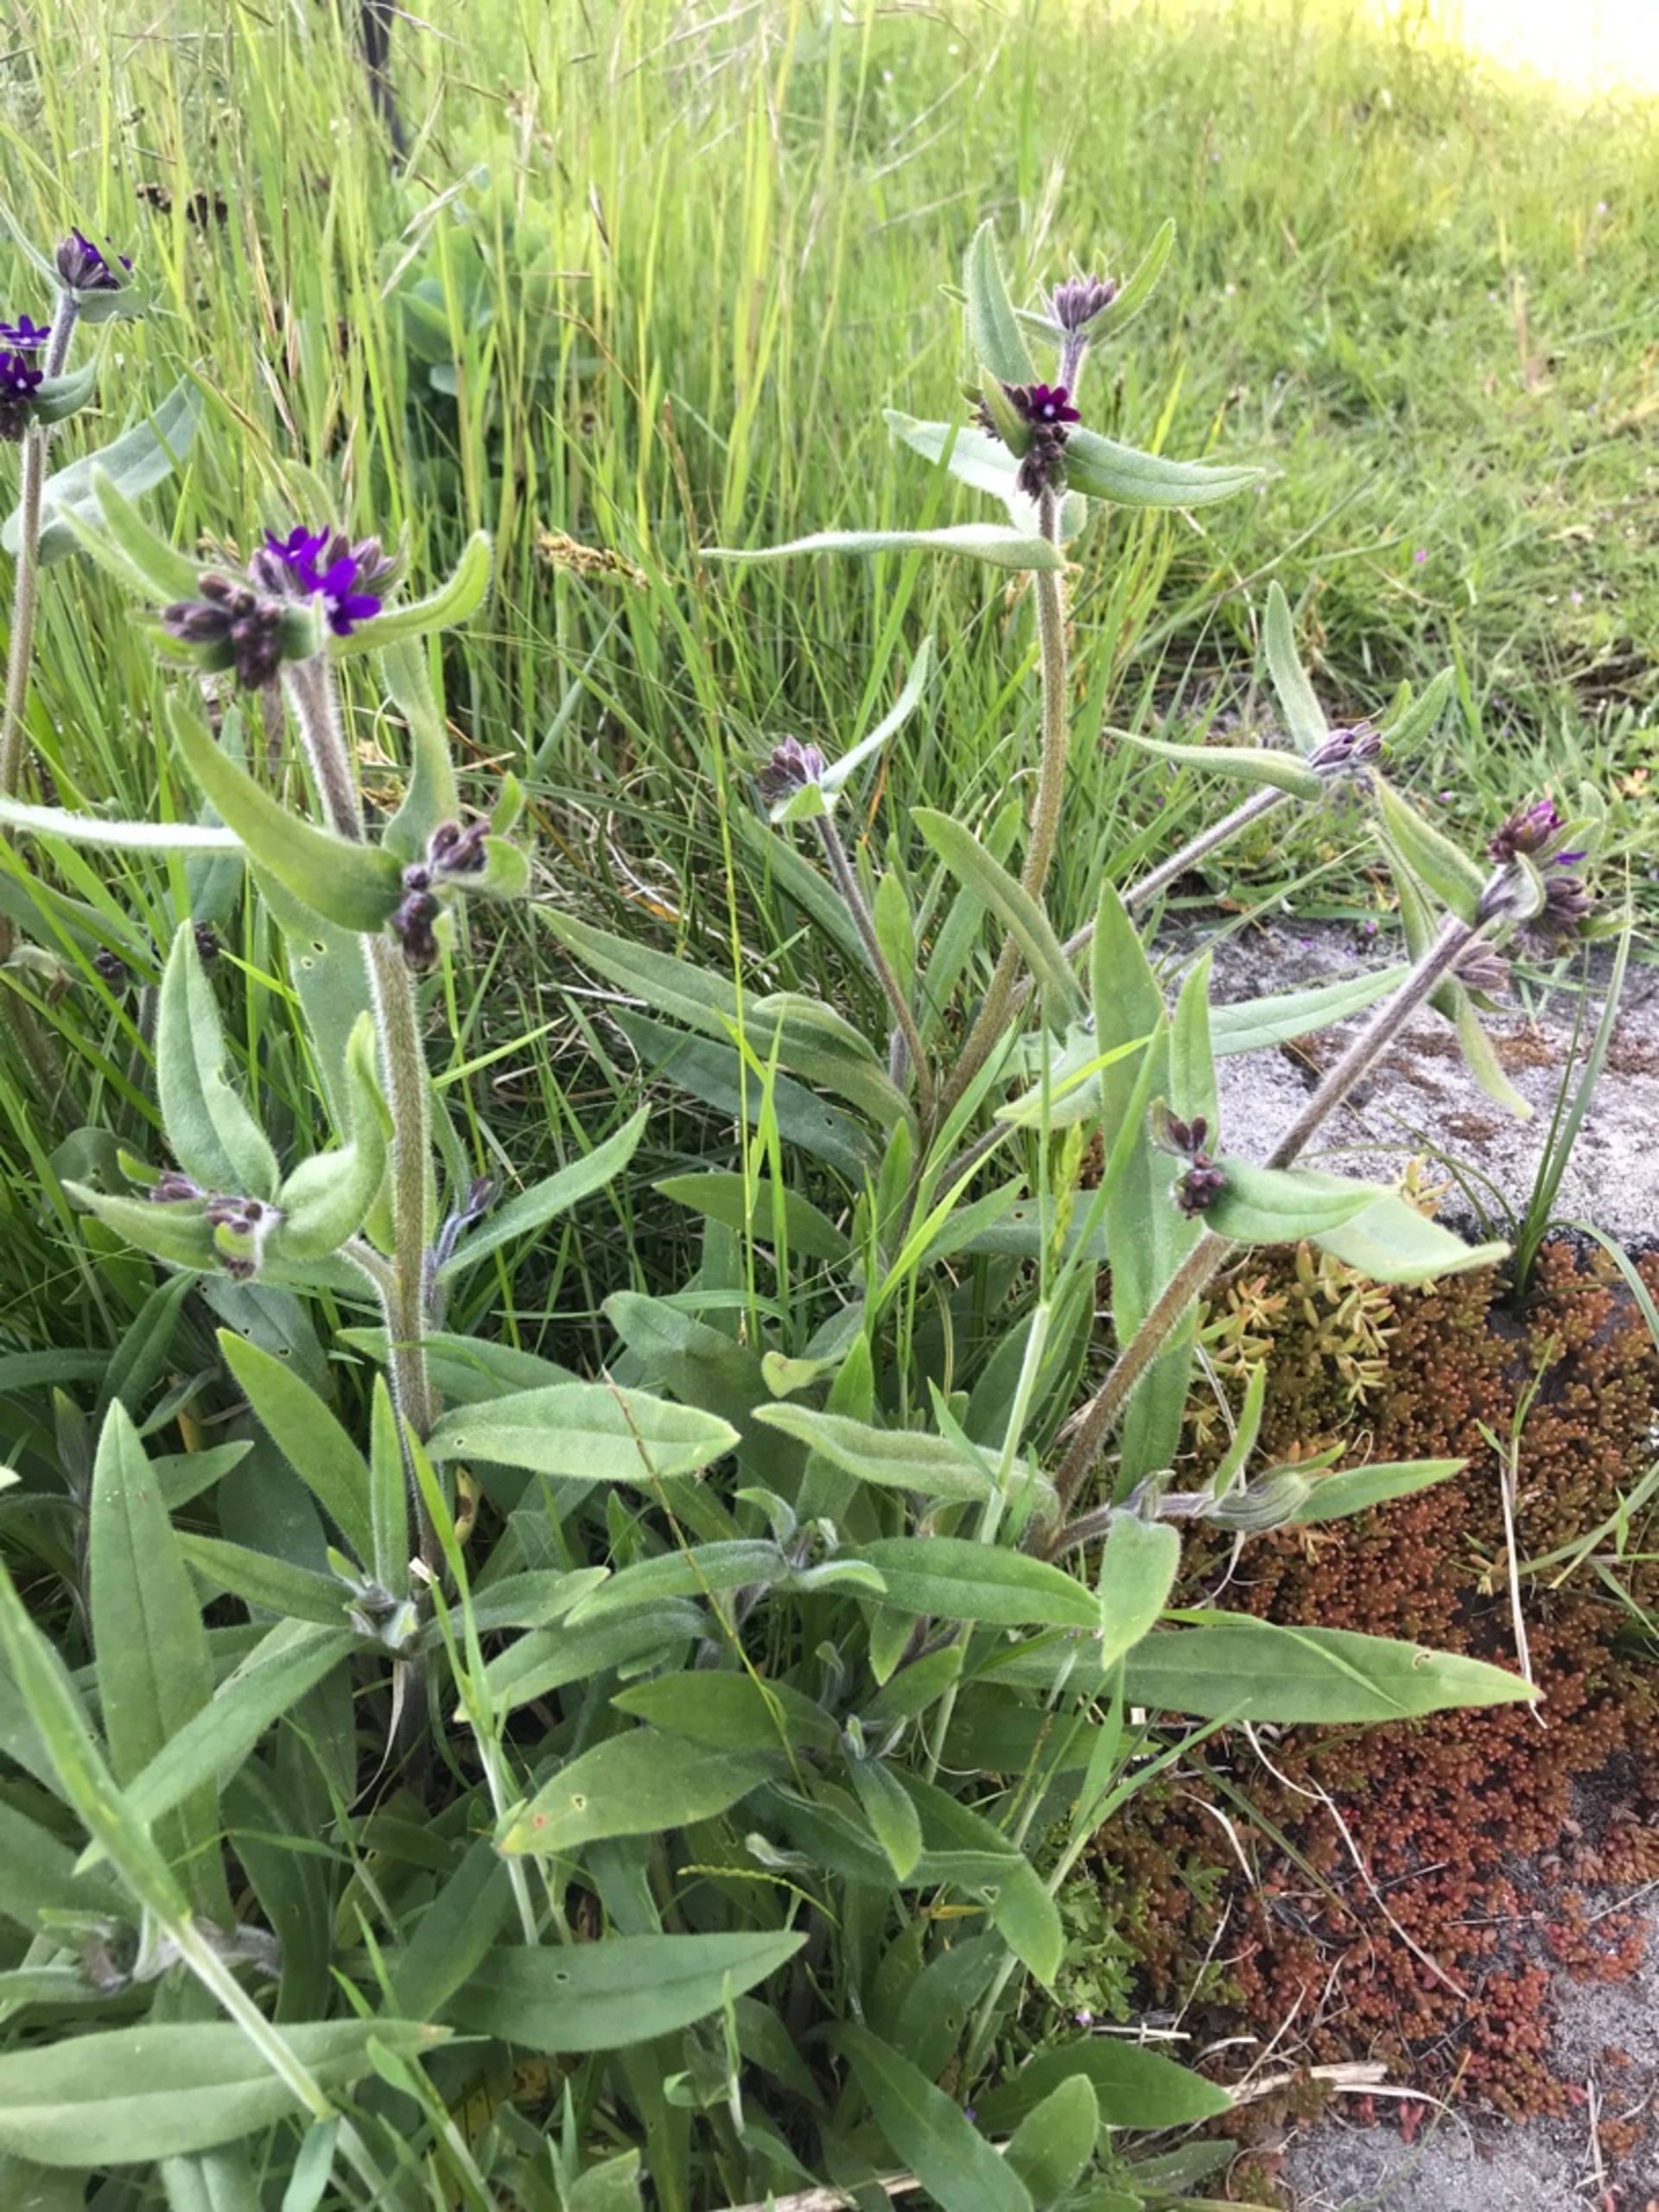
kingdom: Plantae
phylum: Tracheophyta
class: Magnoliopsida
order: Boraginales
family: Boraginaceae
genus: Anchusa
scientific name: Anchusa officinalis
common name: Læge-oksetunge
